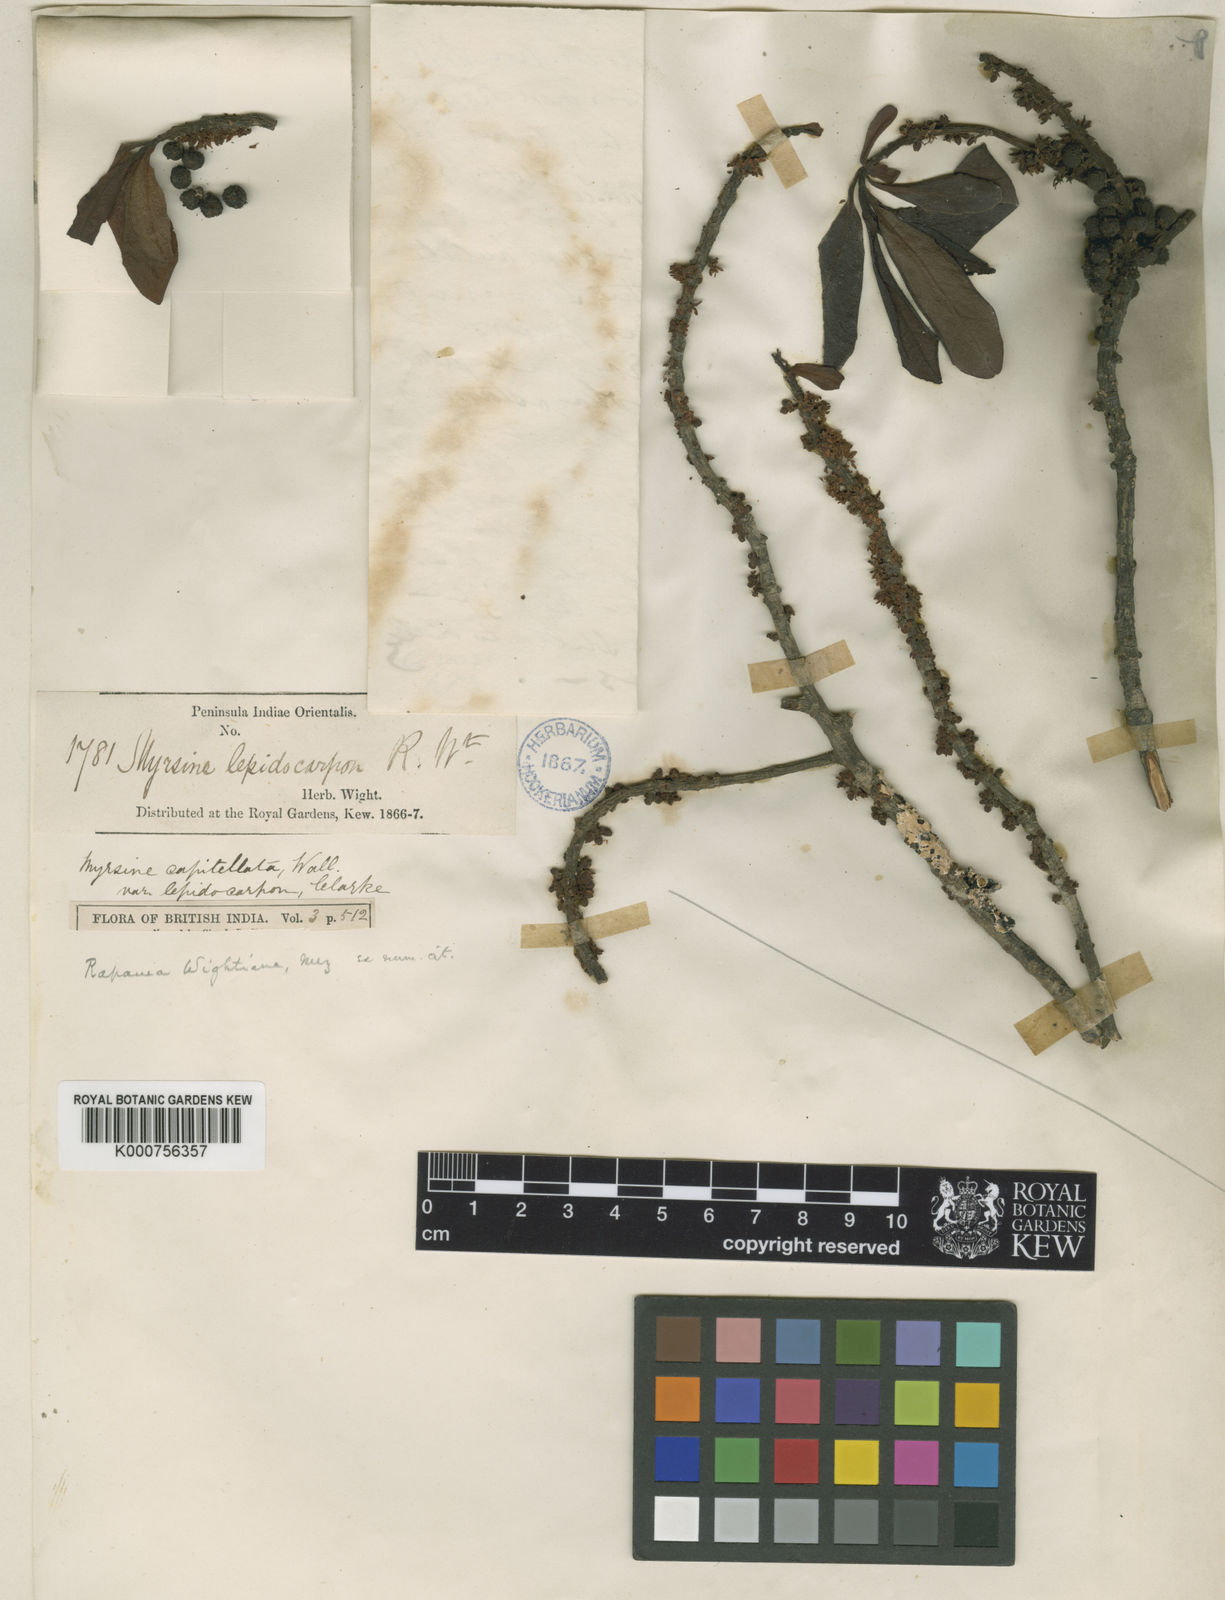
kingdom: Plantae
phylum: Tracheophyta
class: Magnoliopsida
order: Ericales
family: Primulaceae
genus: Myrsine
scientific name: Myrsine
